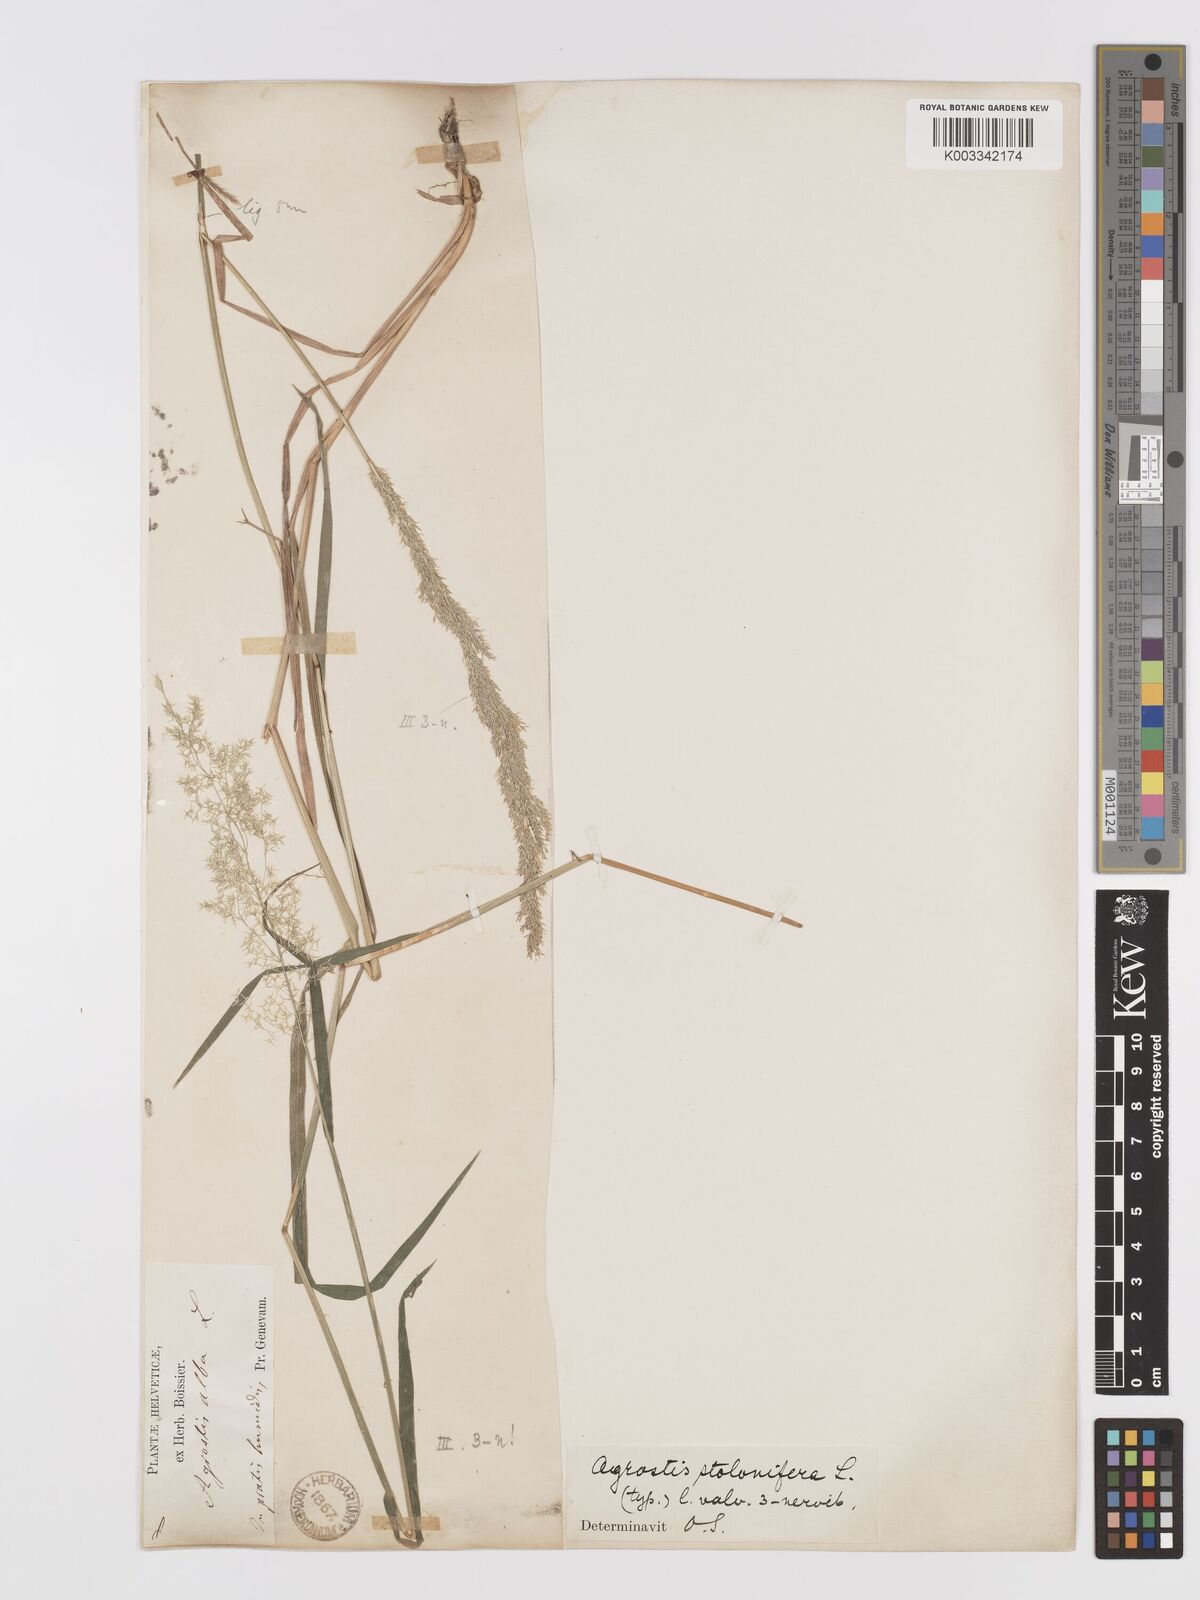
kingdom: Plantae
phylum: Tracheophyta
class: Liliopsida
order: Poales
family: Poaceae
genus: Agrostis
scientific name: Agrostis stolonifera
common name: Creeping bentgrass
